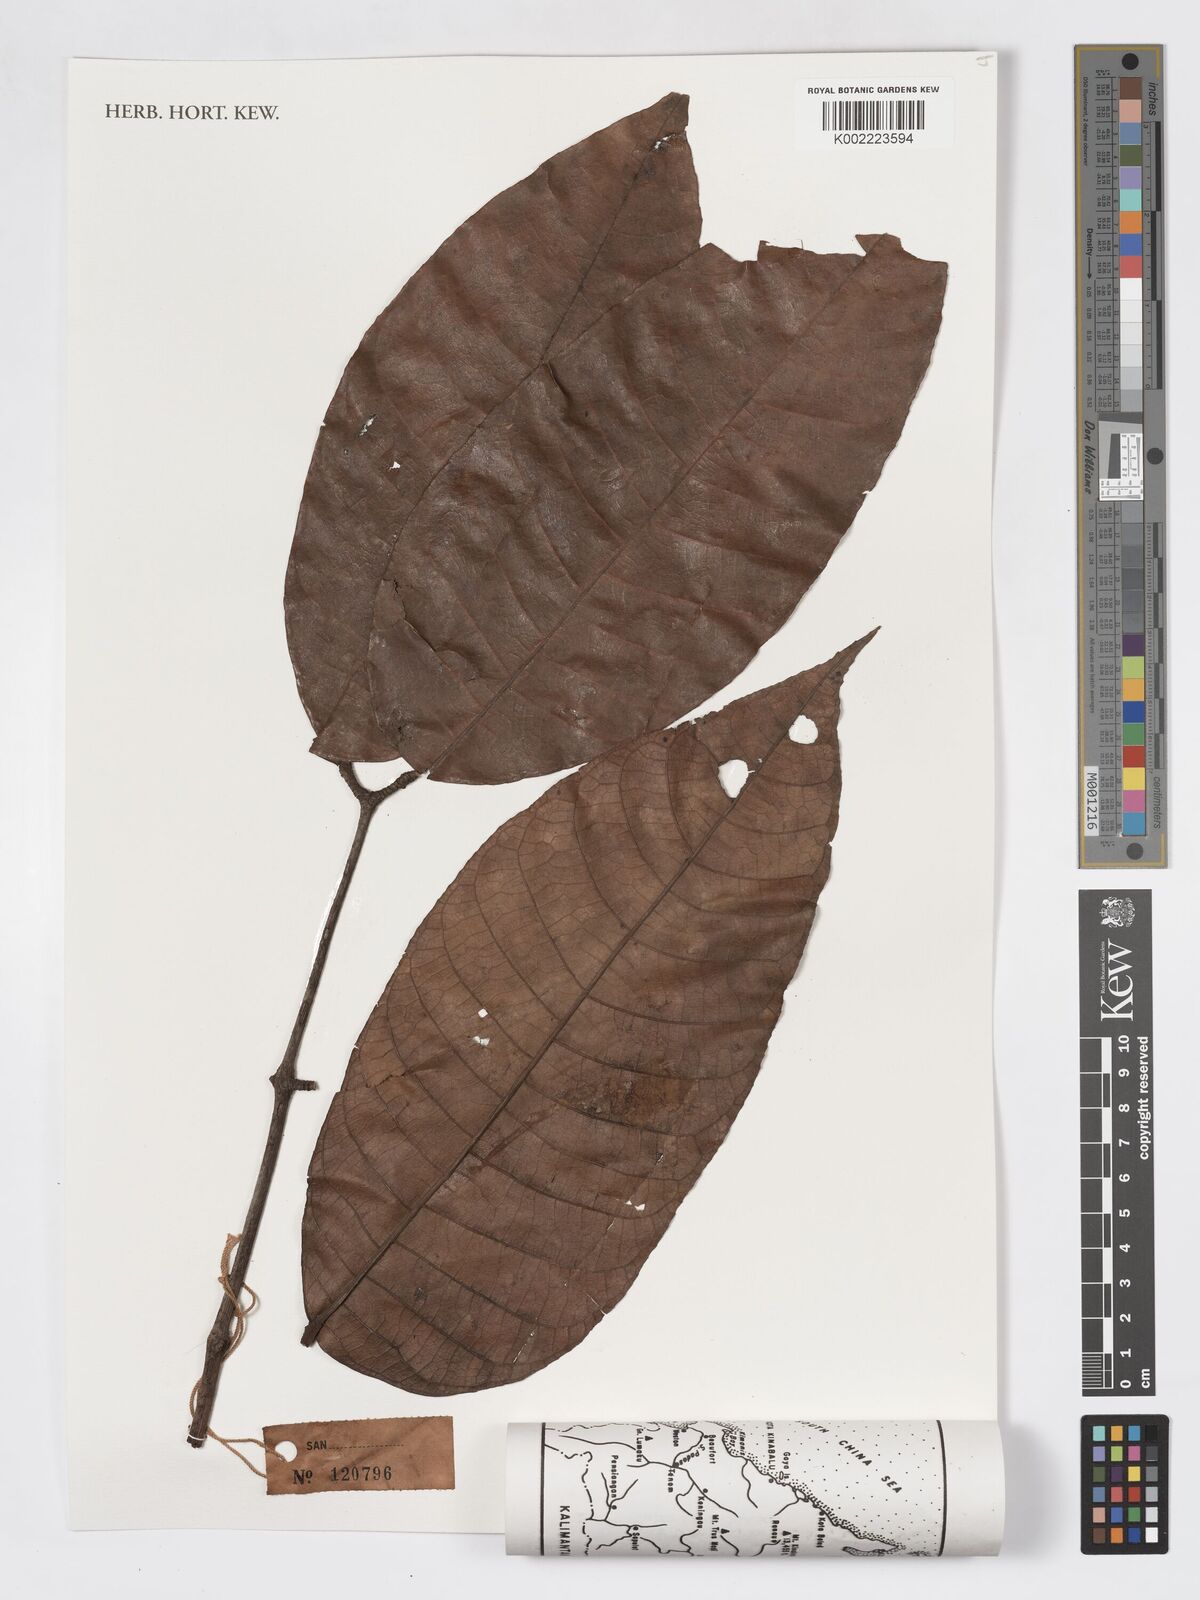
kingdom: Plantae
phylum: Tracheophyta
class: Magnoliopsida
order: Sapindales
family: Burseraceae
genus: Canarium
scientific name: Canarium denticulatum
